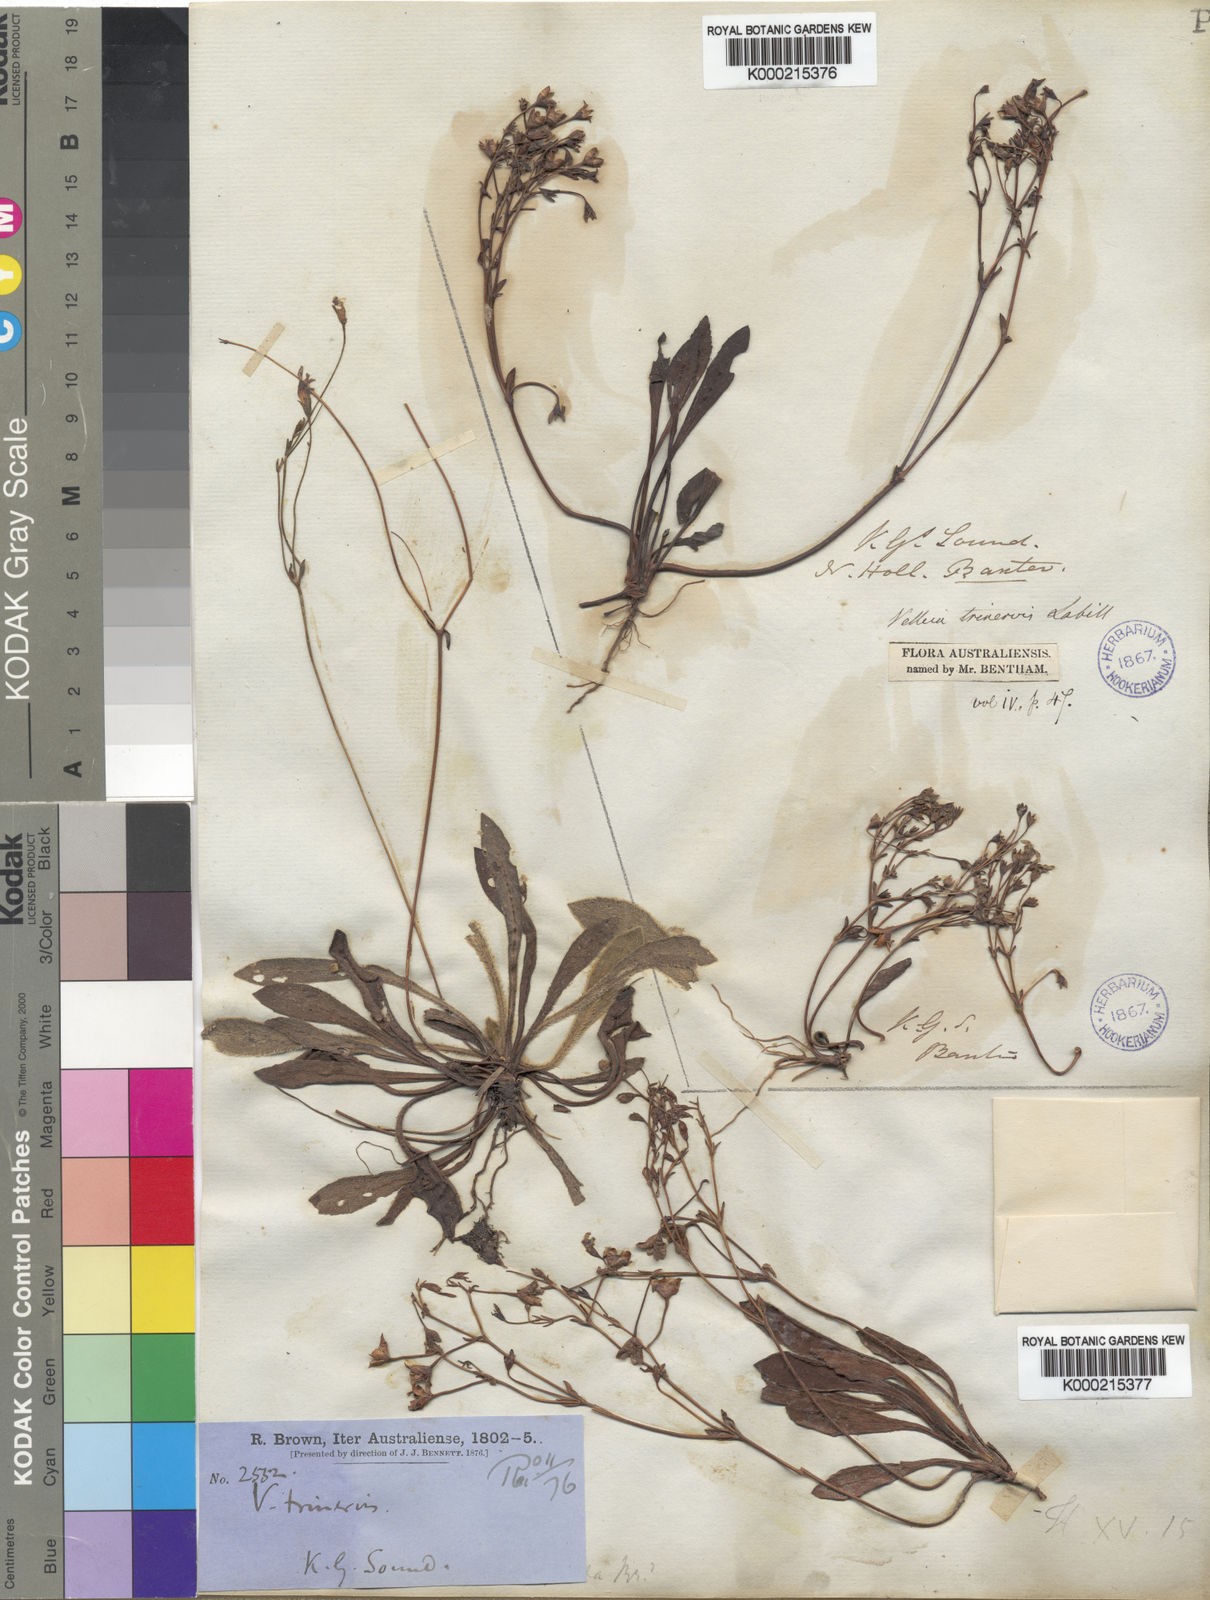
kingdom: Plantae
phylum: Tracheophyta
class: Magnoliopsida
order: Asterales
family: Goodeniaceae
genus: Goodenia
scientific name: Goodenia trinervis
